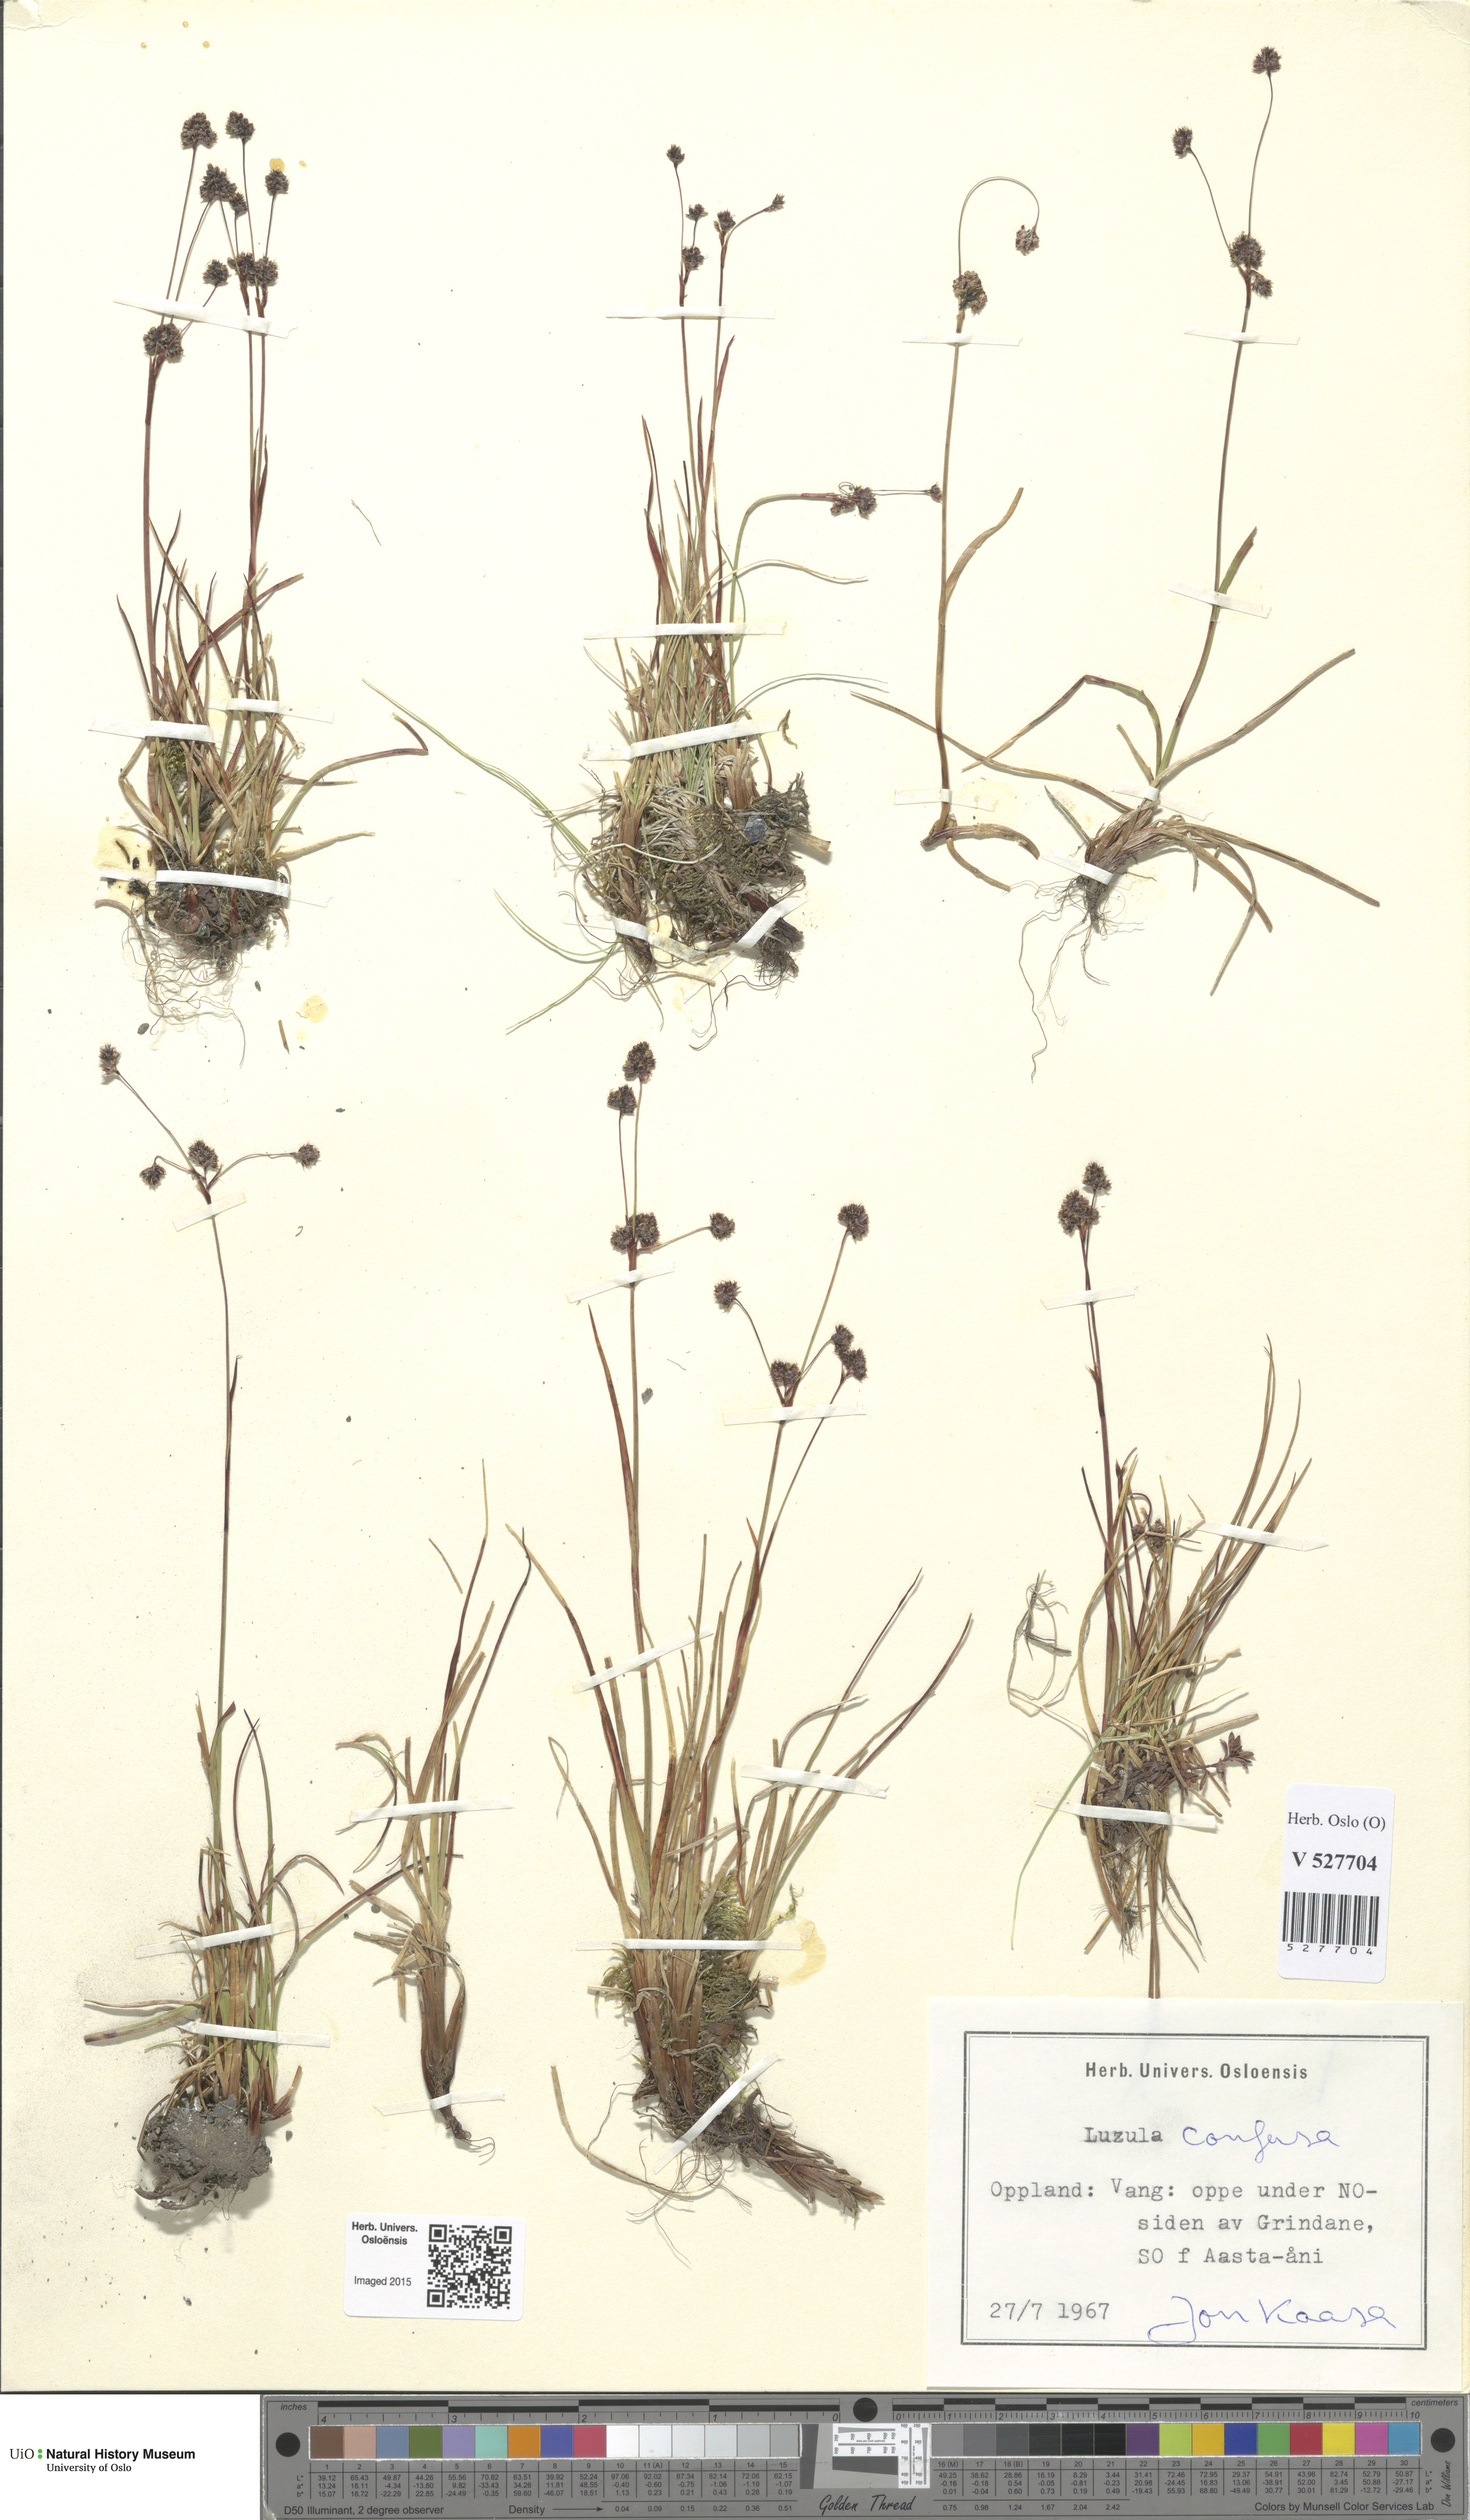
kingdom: Plantae
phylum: Tracheophyta
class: Liliopsida
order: Poales
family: Juncaceae
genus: Luzula
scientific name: Luzula confusa
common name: Northern wood rush
